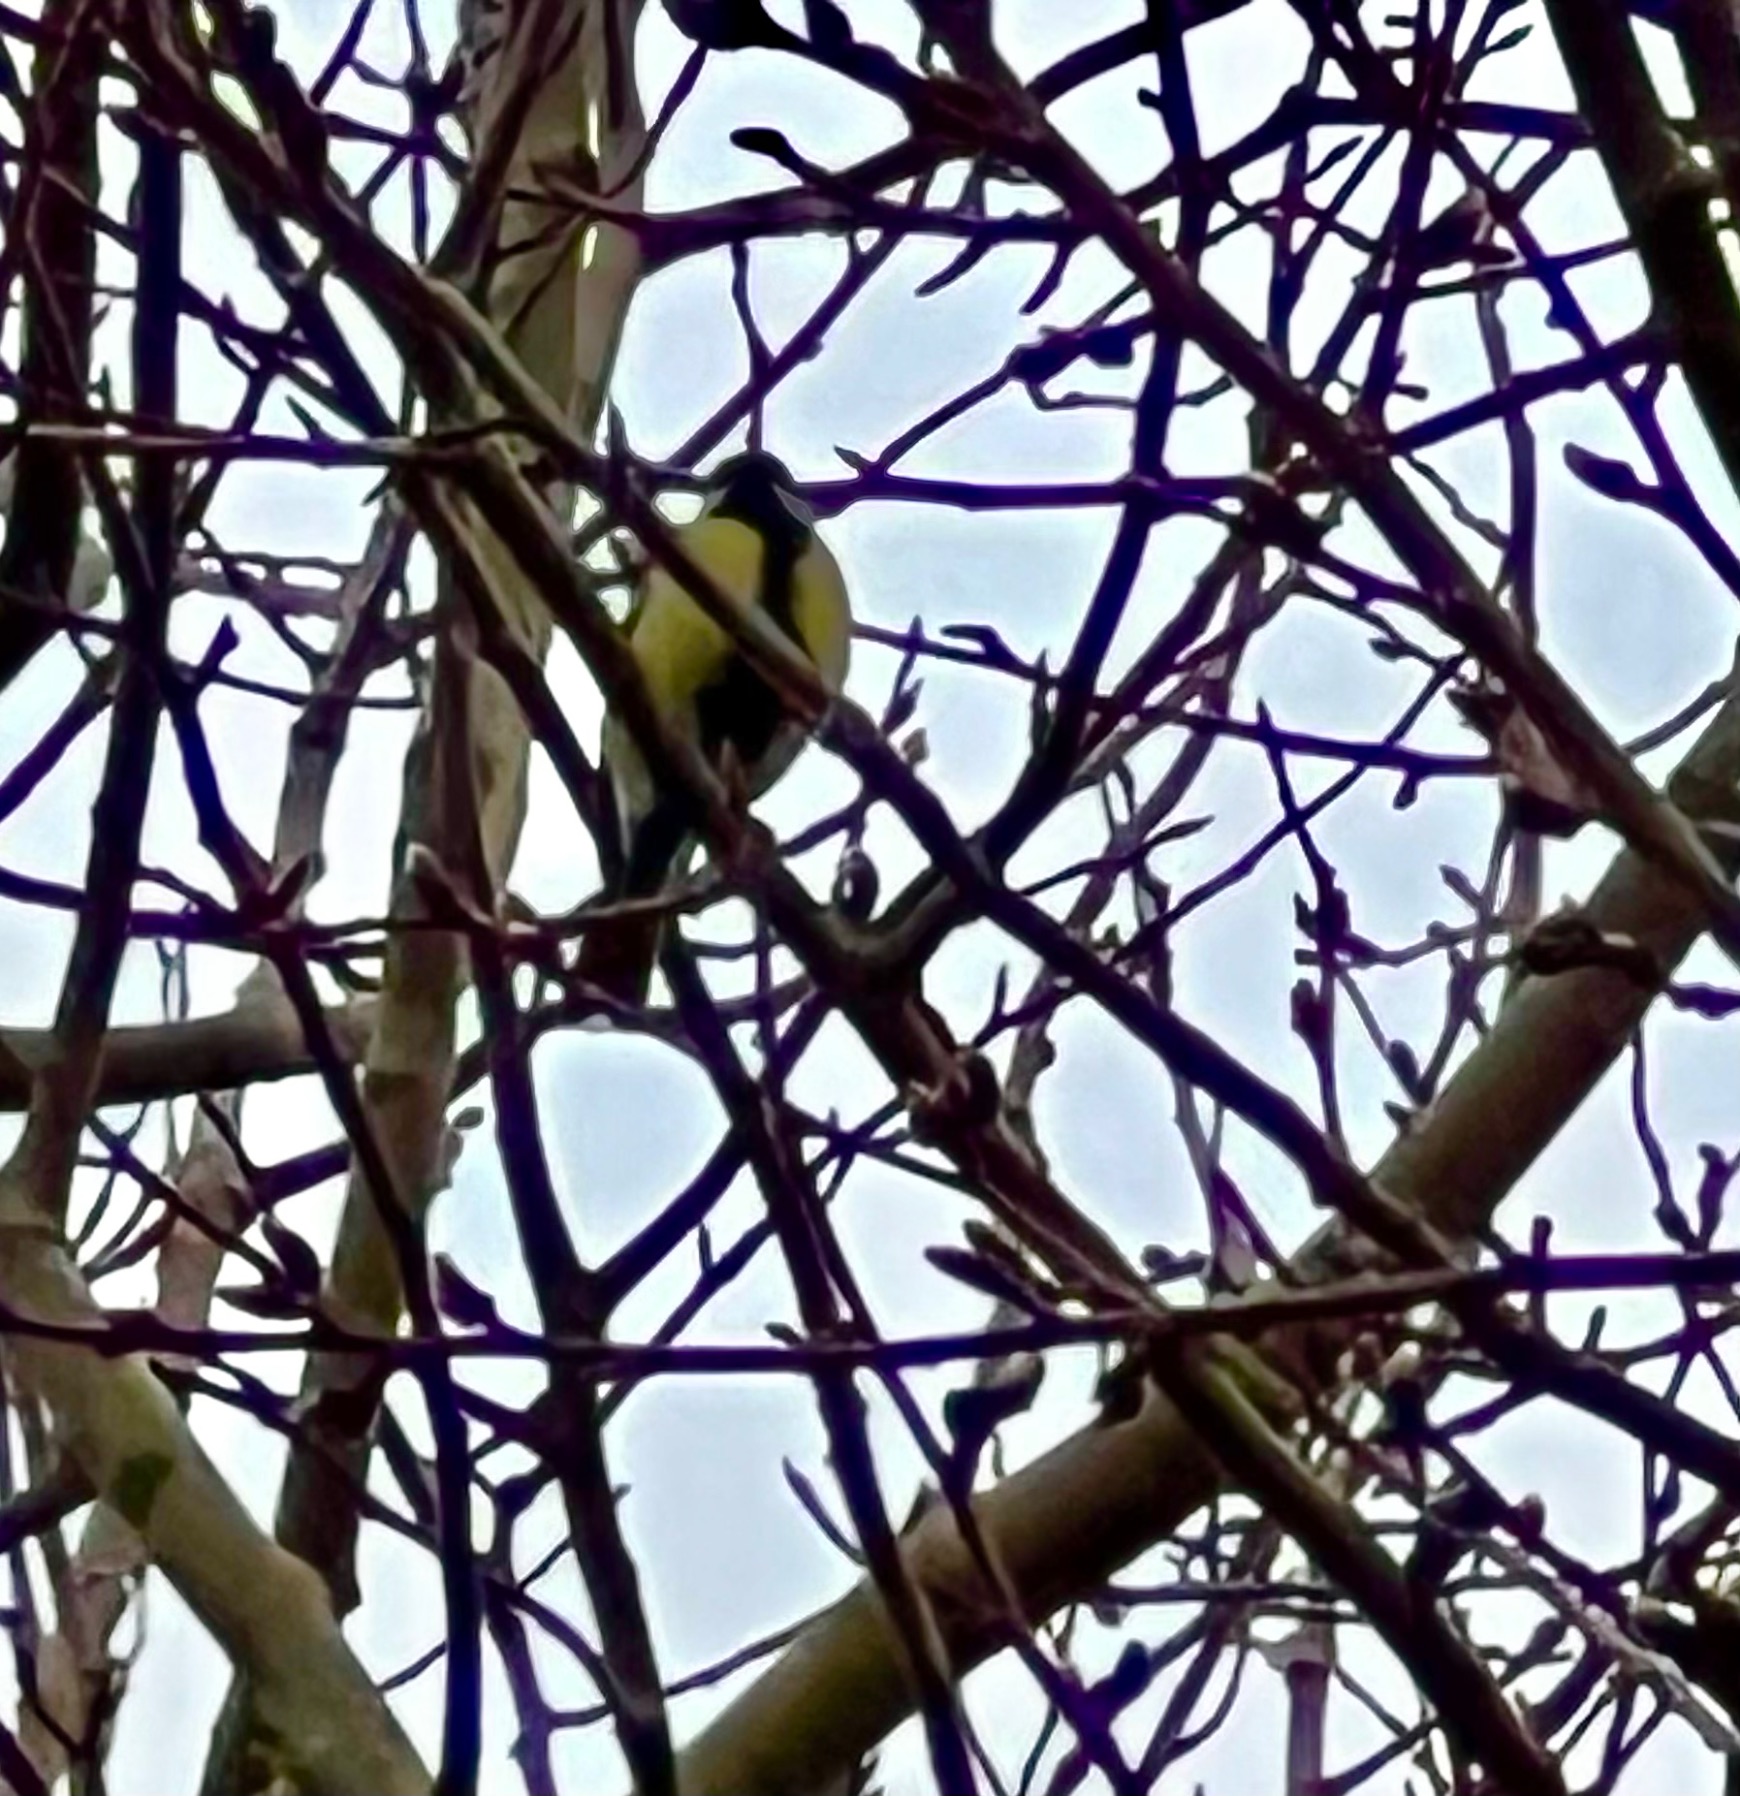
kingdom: Animalia
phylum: Chordata
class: Aves
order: Passeriformes
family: Paridae
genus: Parus
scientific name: Parus major
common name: Musvit
